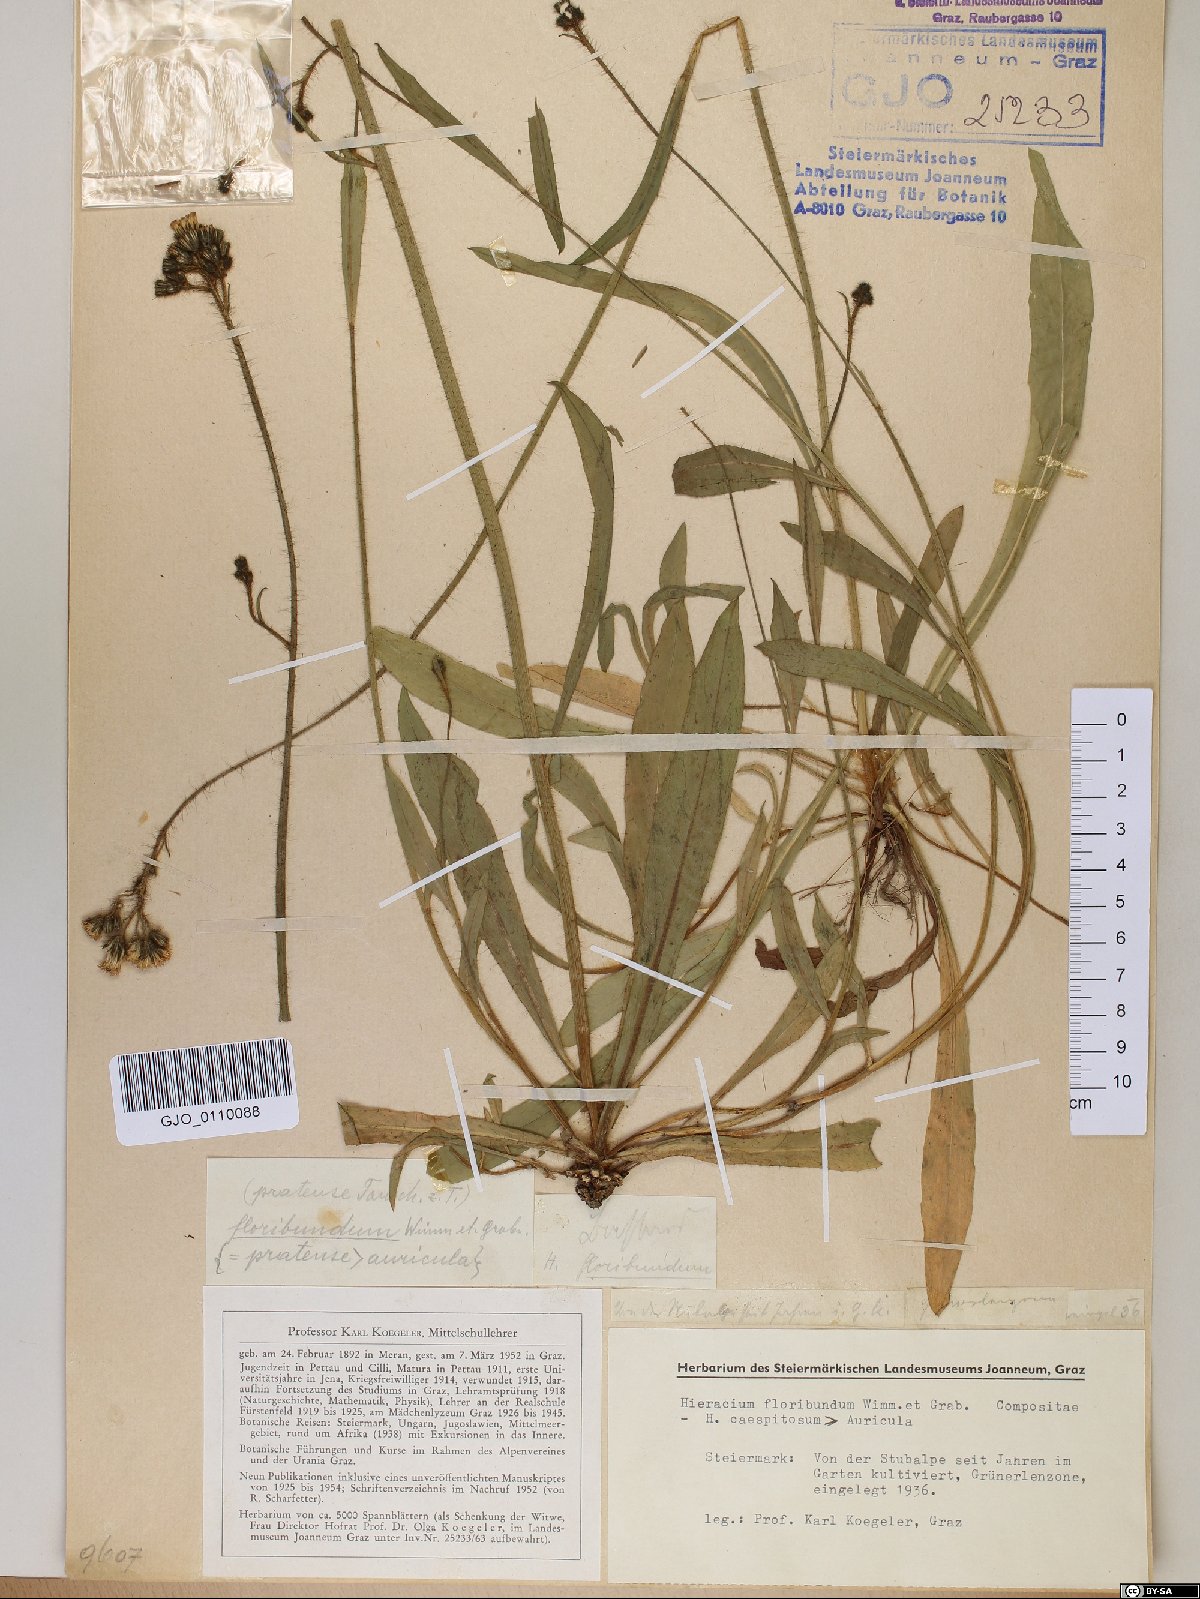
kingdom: Plantae
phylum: Tracheophyta
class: Magnoliopsida
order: Asterales
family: Asteraceae
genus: Pilosella
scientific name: Pilosella floribunda
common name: Glaucous hawkweed
